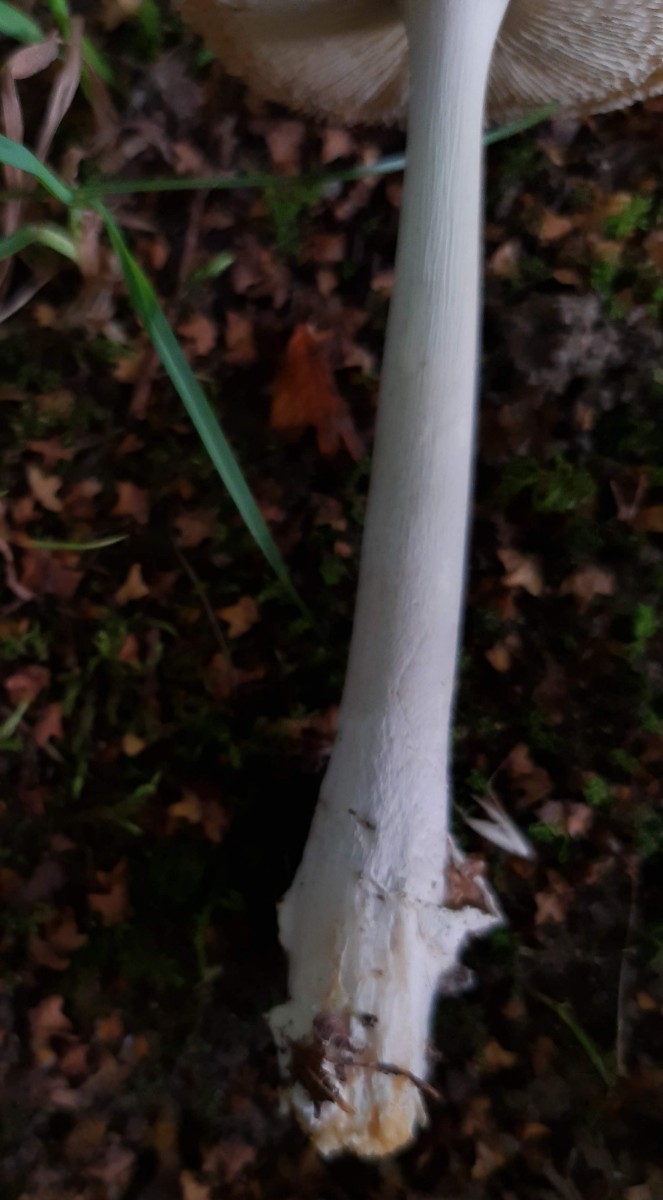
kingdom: Fungi
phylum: Basidiomycota
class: Agaricomycetes
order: Agaricales
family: Amanitaceae
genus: Amanita
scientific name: Amanita vaginata
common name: grå kam-fluesvamp
